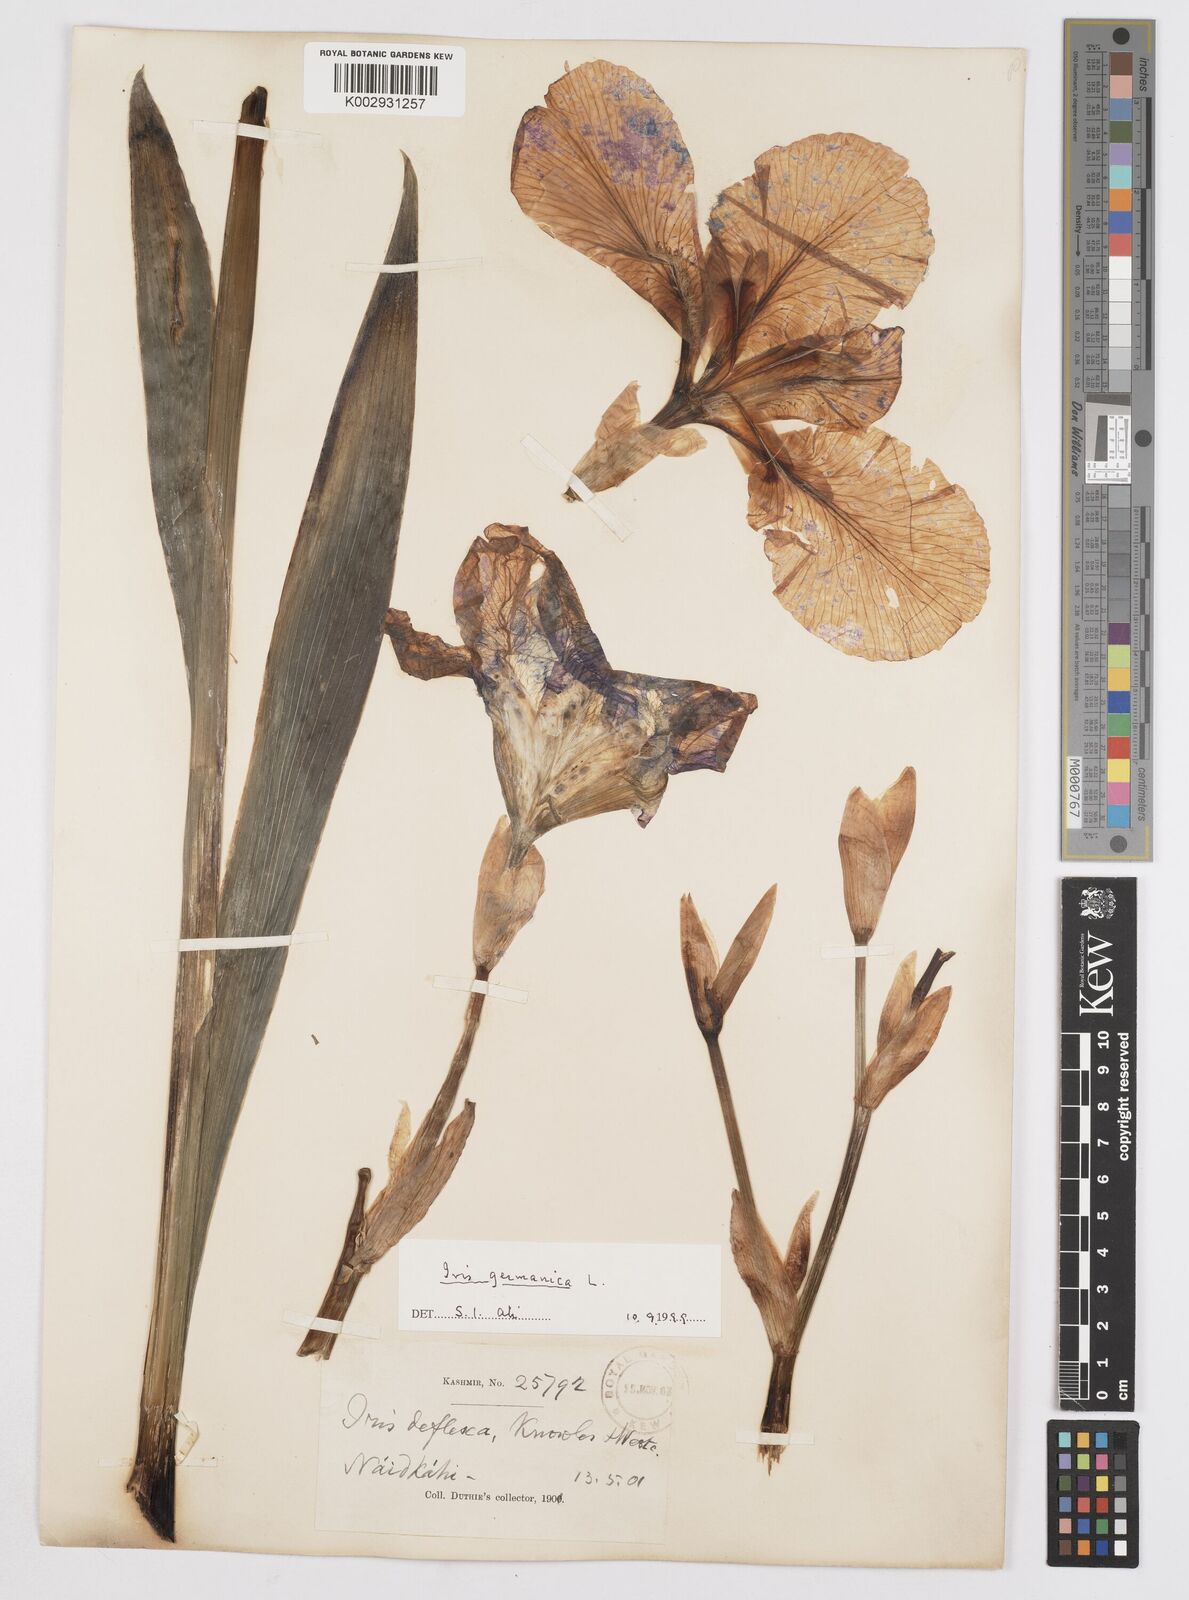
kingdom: Plantae
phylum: Tracheophyta
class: Liliopsida
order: Asparagales
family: Iridaceae
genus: Iris
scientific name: Iris germanica
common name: German iris
